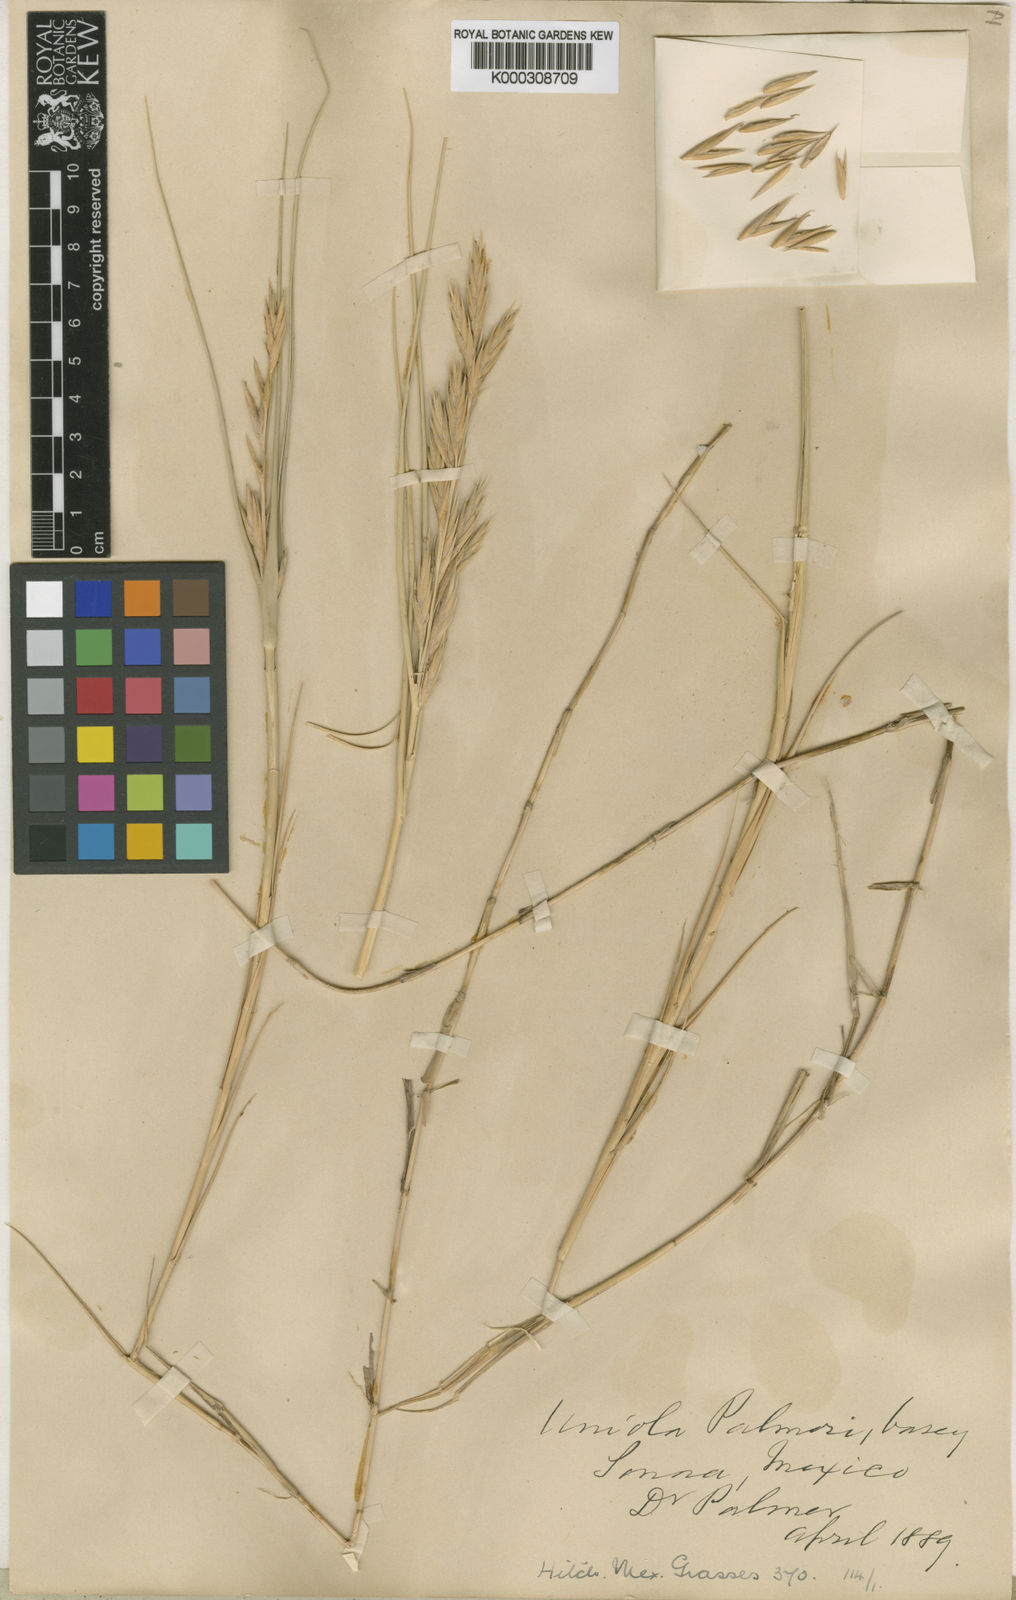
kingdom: Plantae
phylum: Tracheophyta
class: Liliopsida
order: Poales
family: Poaceae
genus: Distichlis
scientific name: Distichlis palmeri
